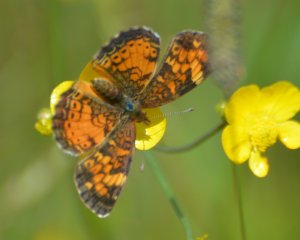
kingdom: Animalia
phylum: Arthropoda
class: Insecta
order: Lepidoptera
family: Nymphalidae
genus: Phyciodes
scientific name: Phyciodes tharos
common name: Northern Crescent
